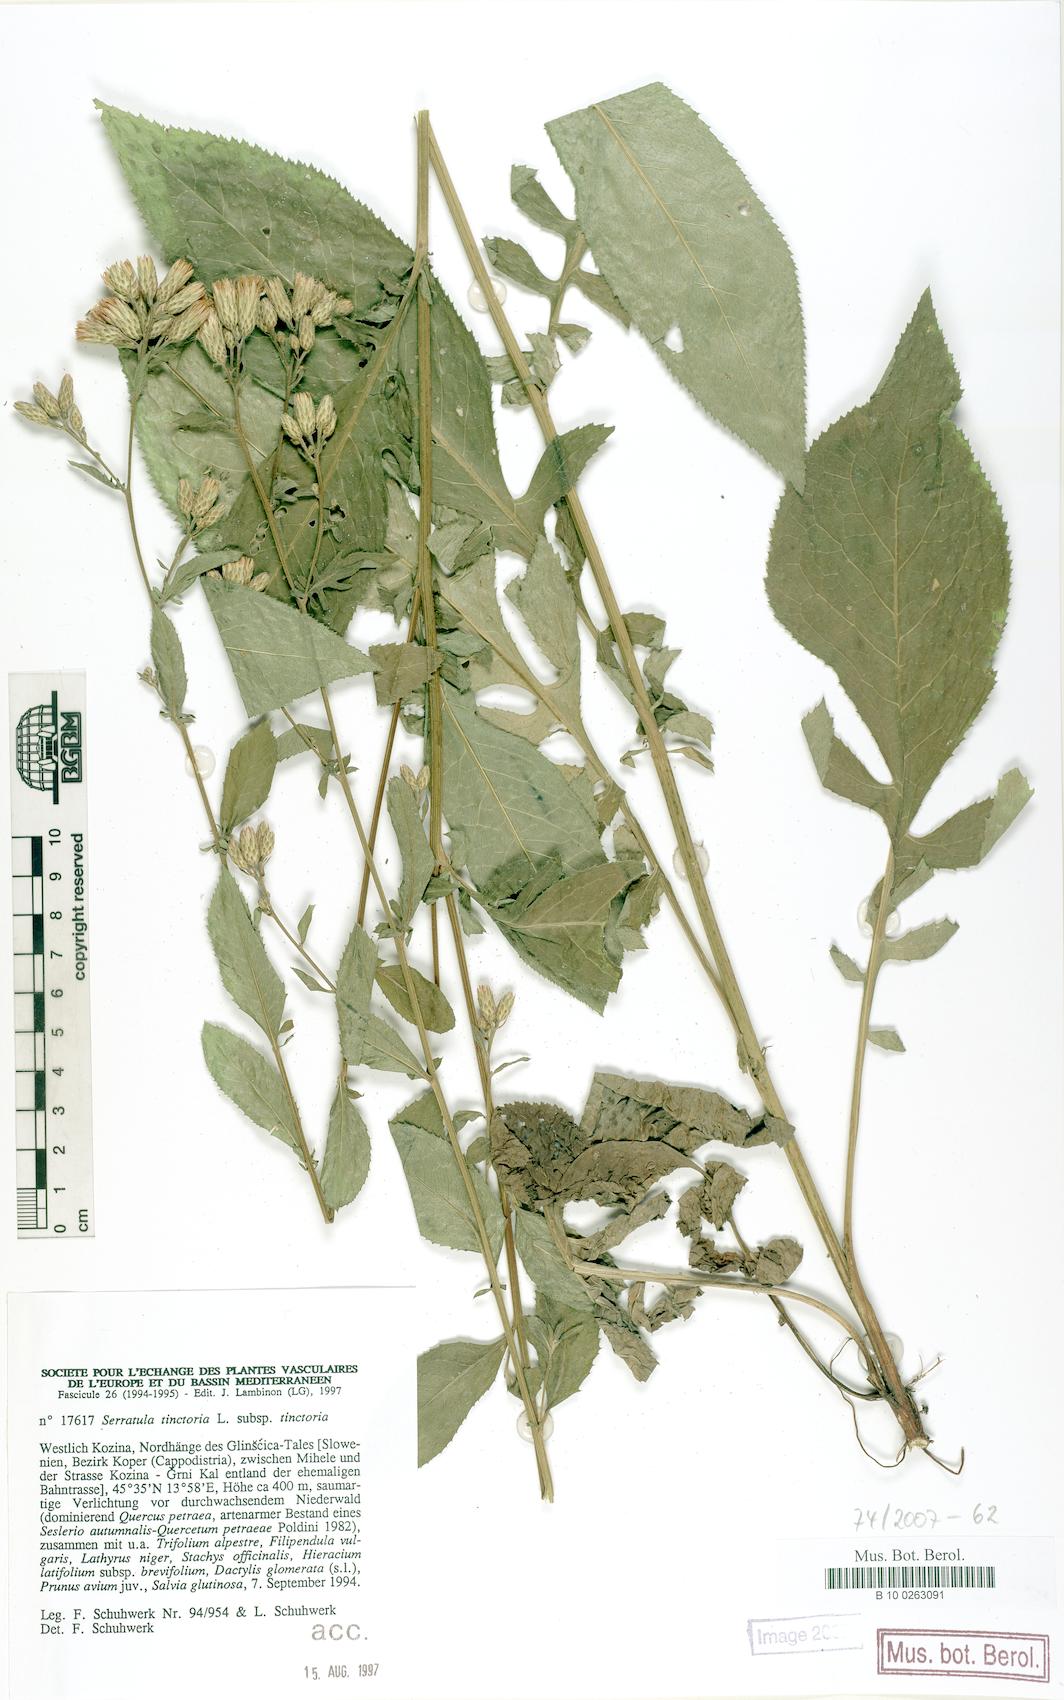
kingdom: Plantae
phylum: Tracheophyta
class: Magnoliopsida
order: Asterales
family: Asteraceae
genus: Serratula
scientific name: Serratula tinctoria
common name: Saw-wort
